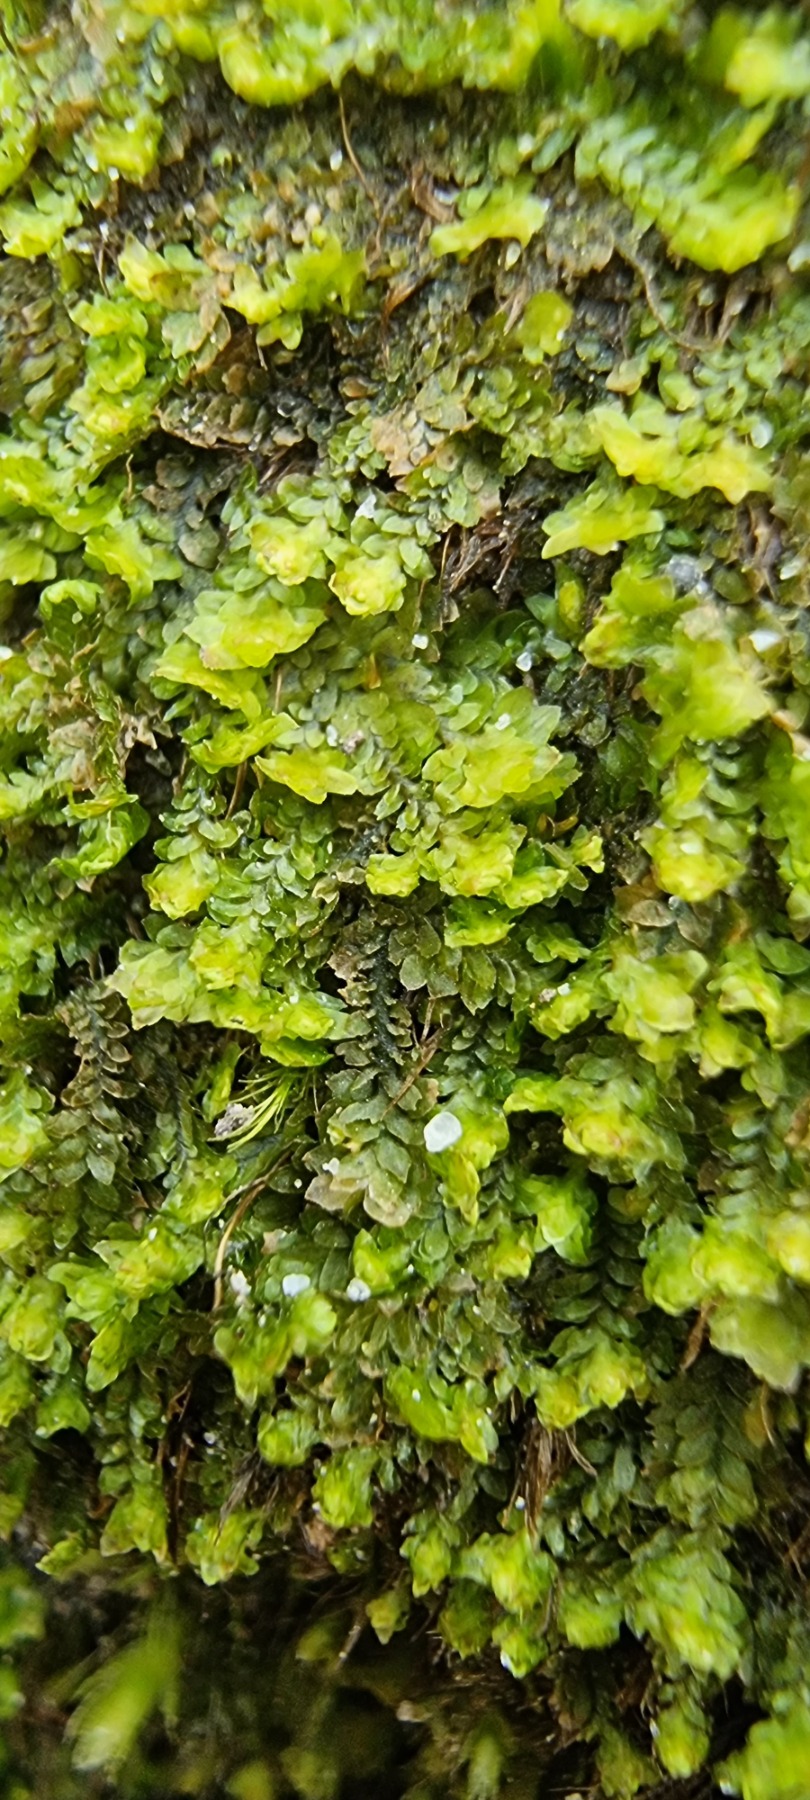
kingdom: Plantae
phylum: Marchantiophyta
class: Jungermanniopsida
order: Jungermanniales
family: Scapaniaceae
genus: Diplophyllum
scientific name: Diplophyllum albicans
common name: Stribet dobbeltblad
